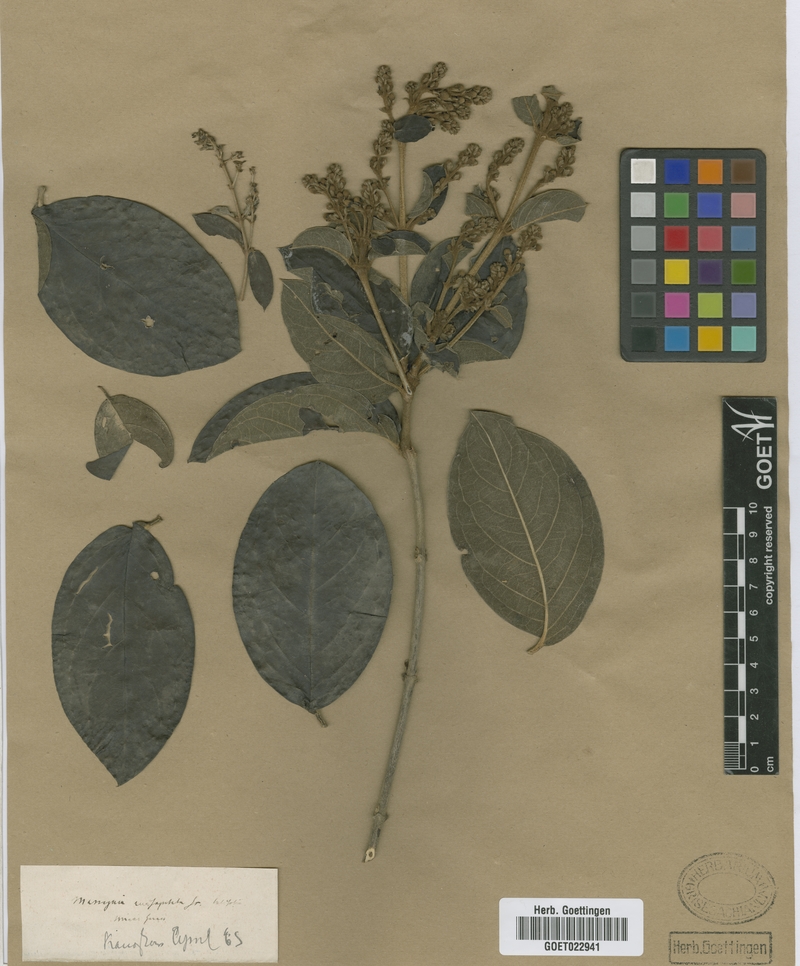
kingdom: Plantae
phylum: Tracheophyta
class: Magnoliopsida
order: Malpighiales
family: Malpighiaceae
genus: Alicia
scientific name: Alicia anisopetala
